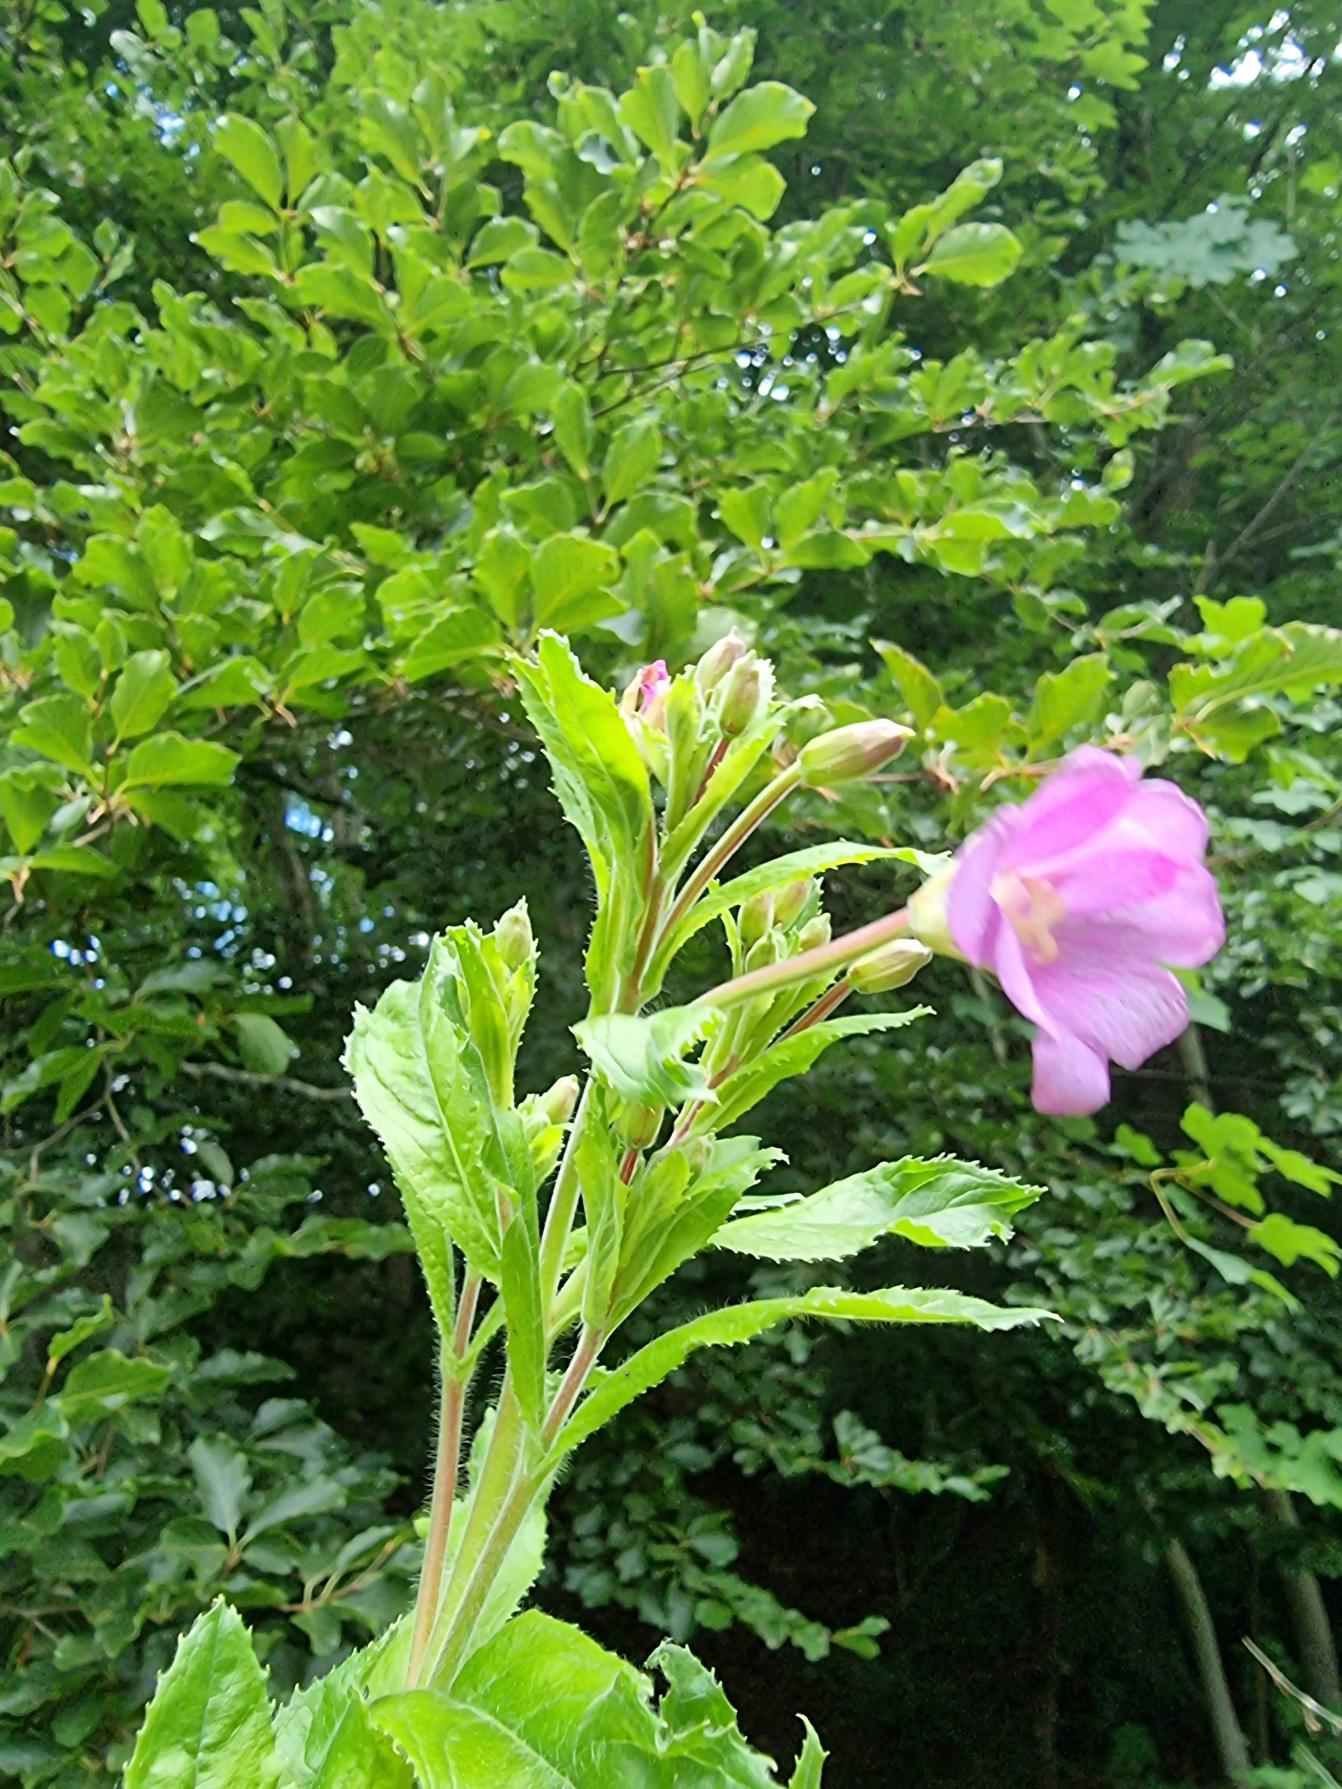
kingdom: Plantae
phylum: Tracheophyta
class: Magnoliopsida
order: Myrtales
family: Onagraceae
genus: Epilobium
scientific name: Epilobium hirsutum
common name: Lådden dueurt
